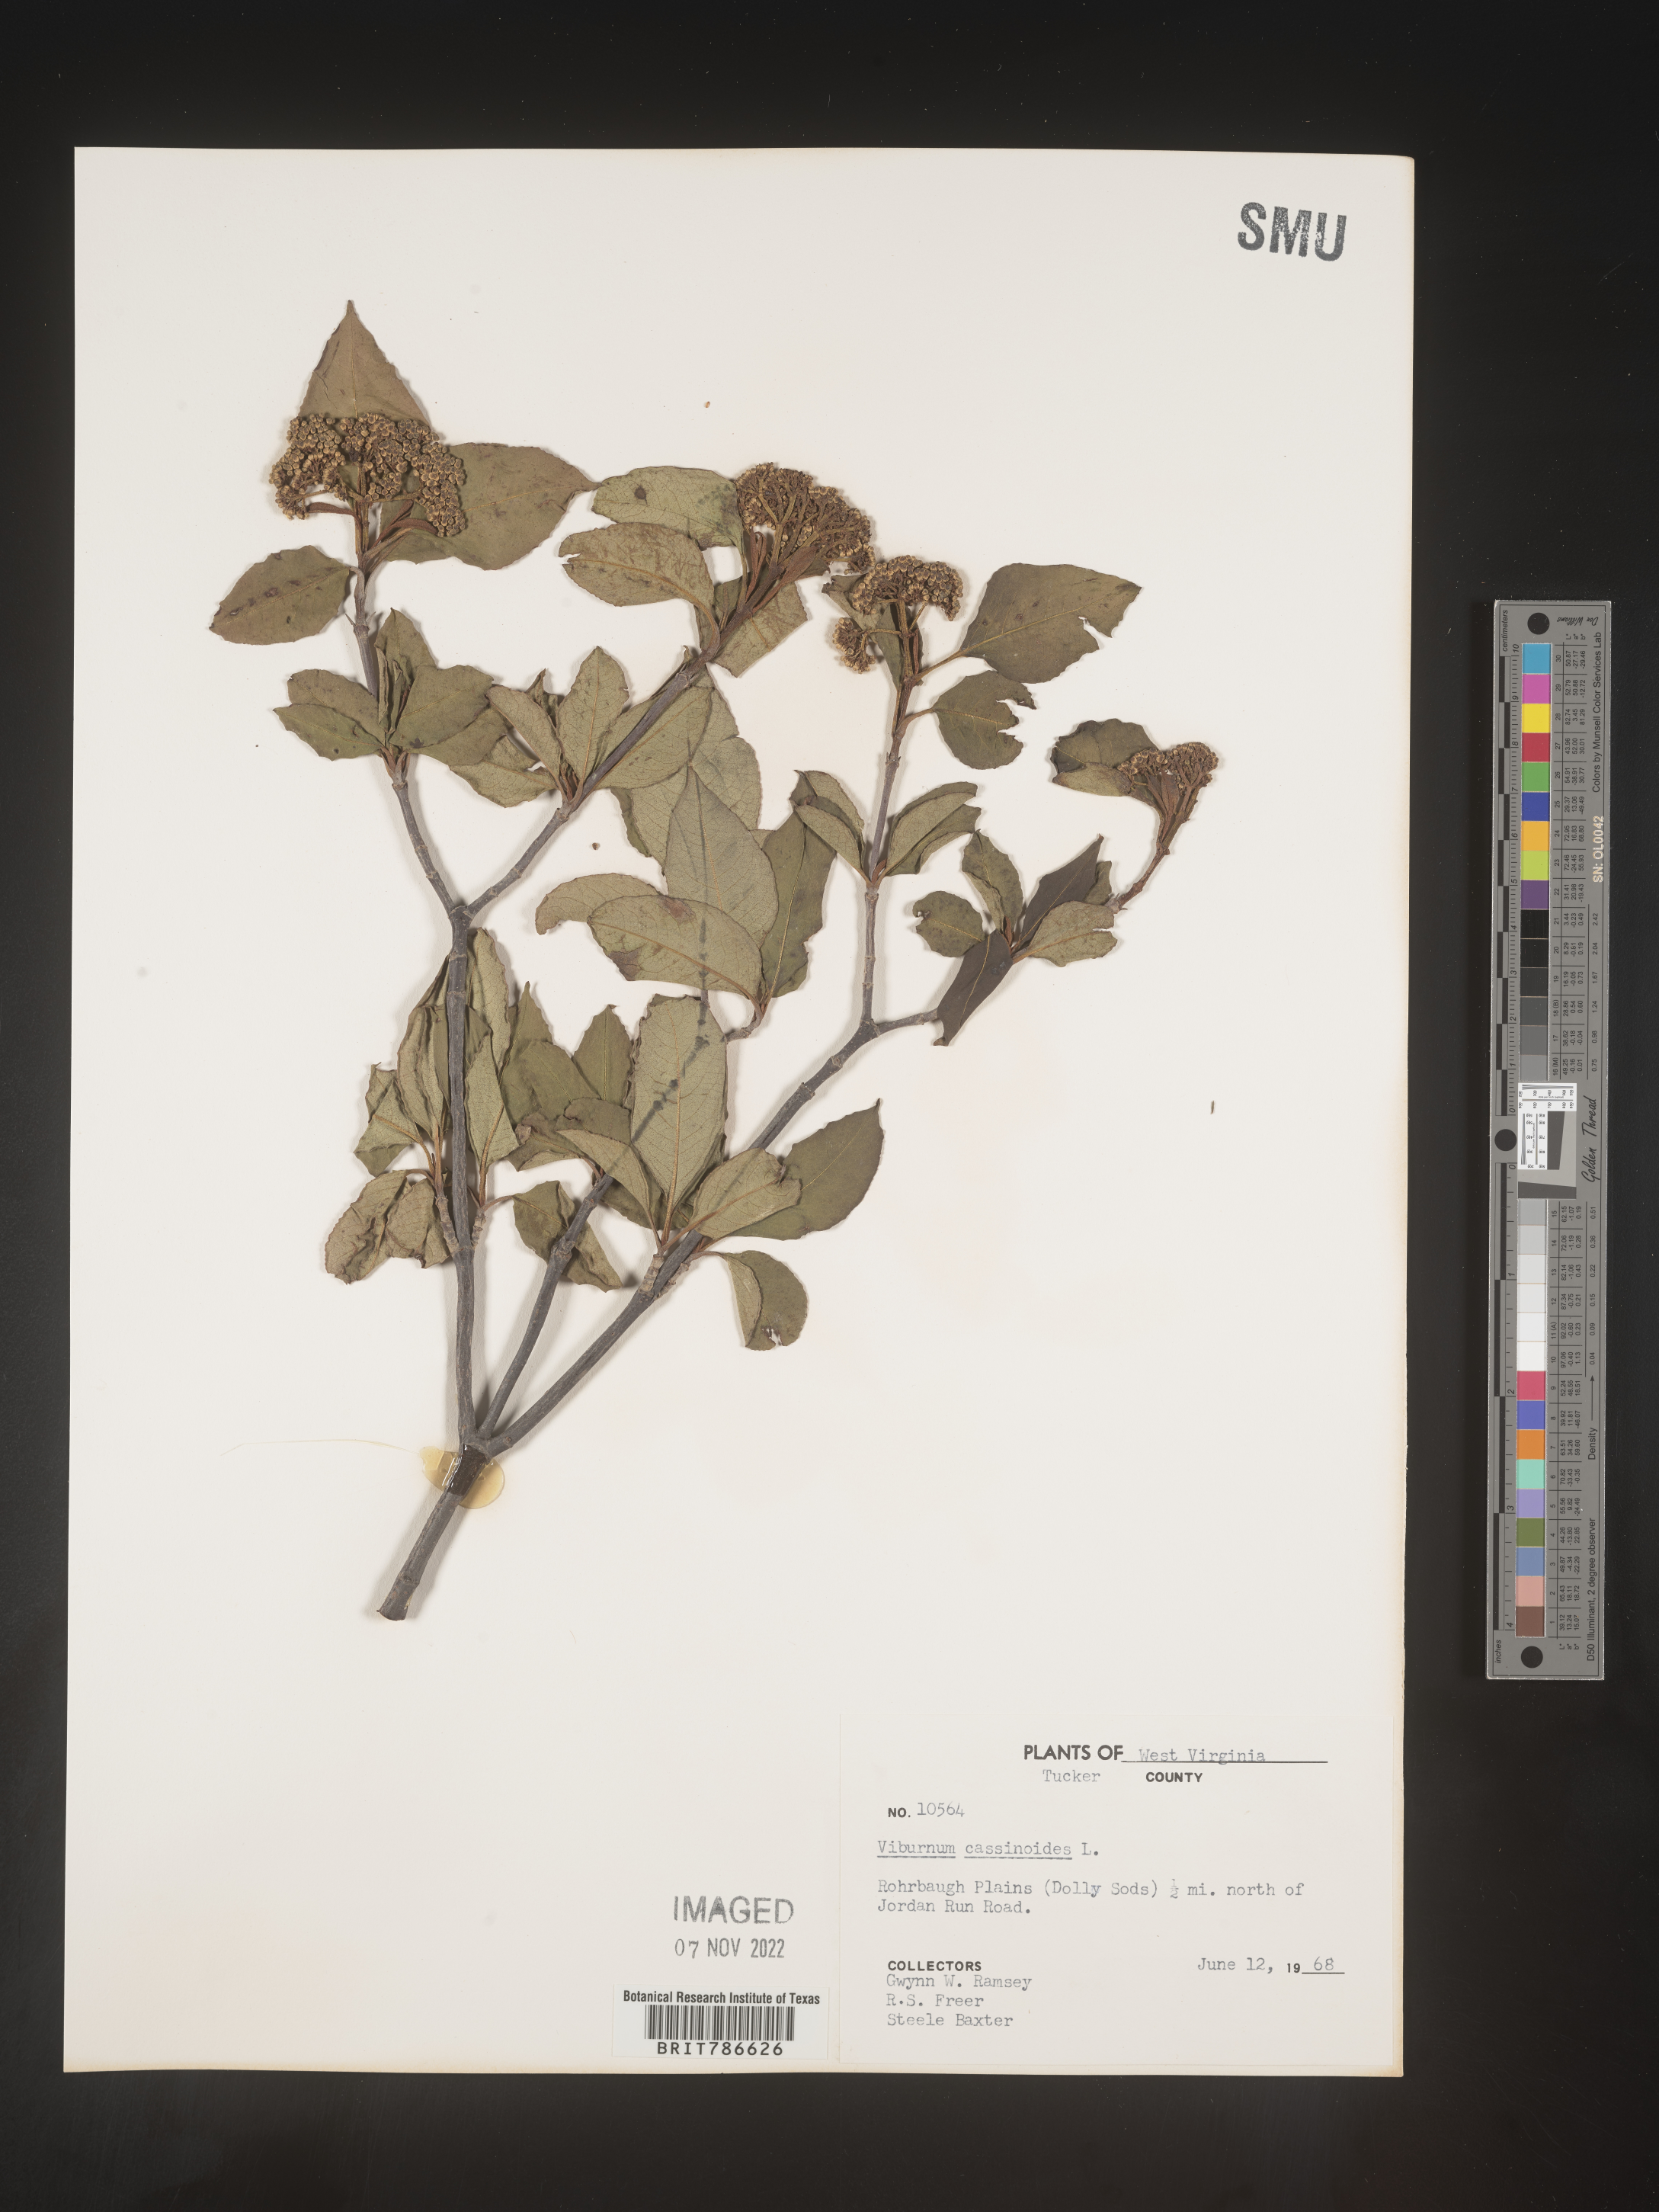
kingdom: Plantae
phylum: Tracheophyta
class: Magnoliopsida
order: Dipsacales
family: Viburnaceae
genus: Viburnum
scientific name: Viburnum cassinoides
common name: Swamp haw
